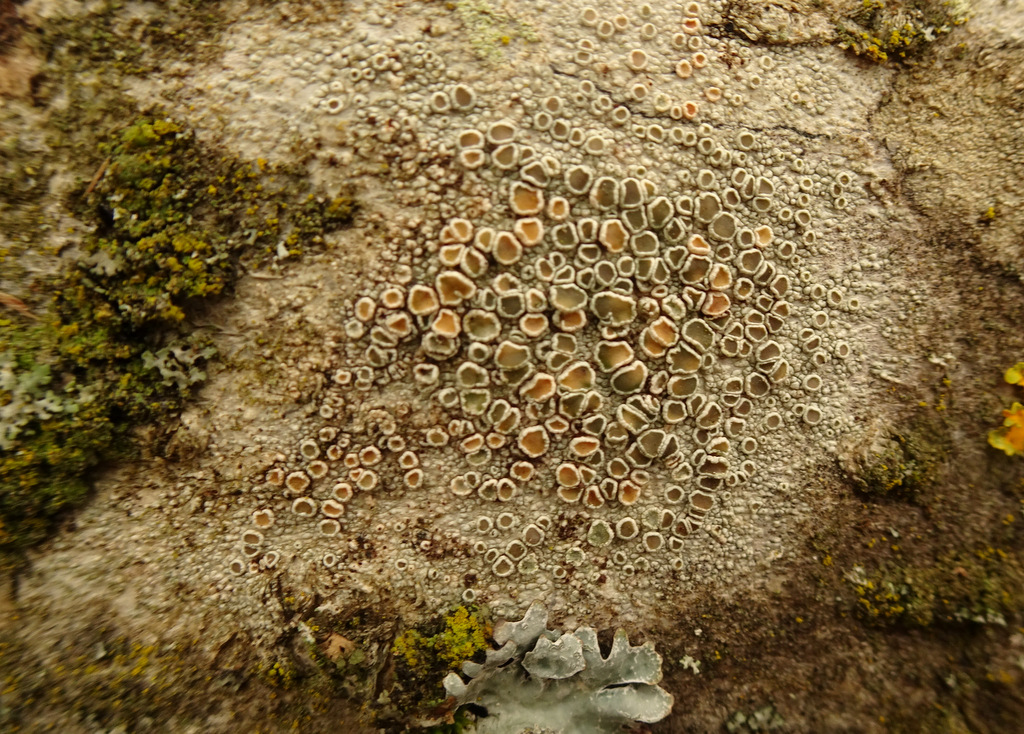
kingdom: Fungi
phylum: Ascomycota
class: Lecanoromycetes
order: Lecanorales
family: Lecanoraceae
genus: Lecanora
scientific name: Lecanora chlarotera
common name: brun kantskivelav
